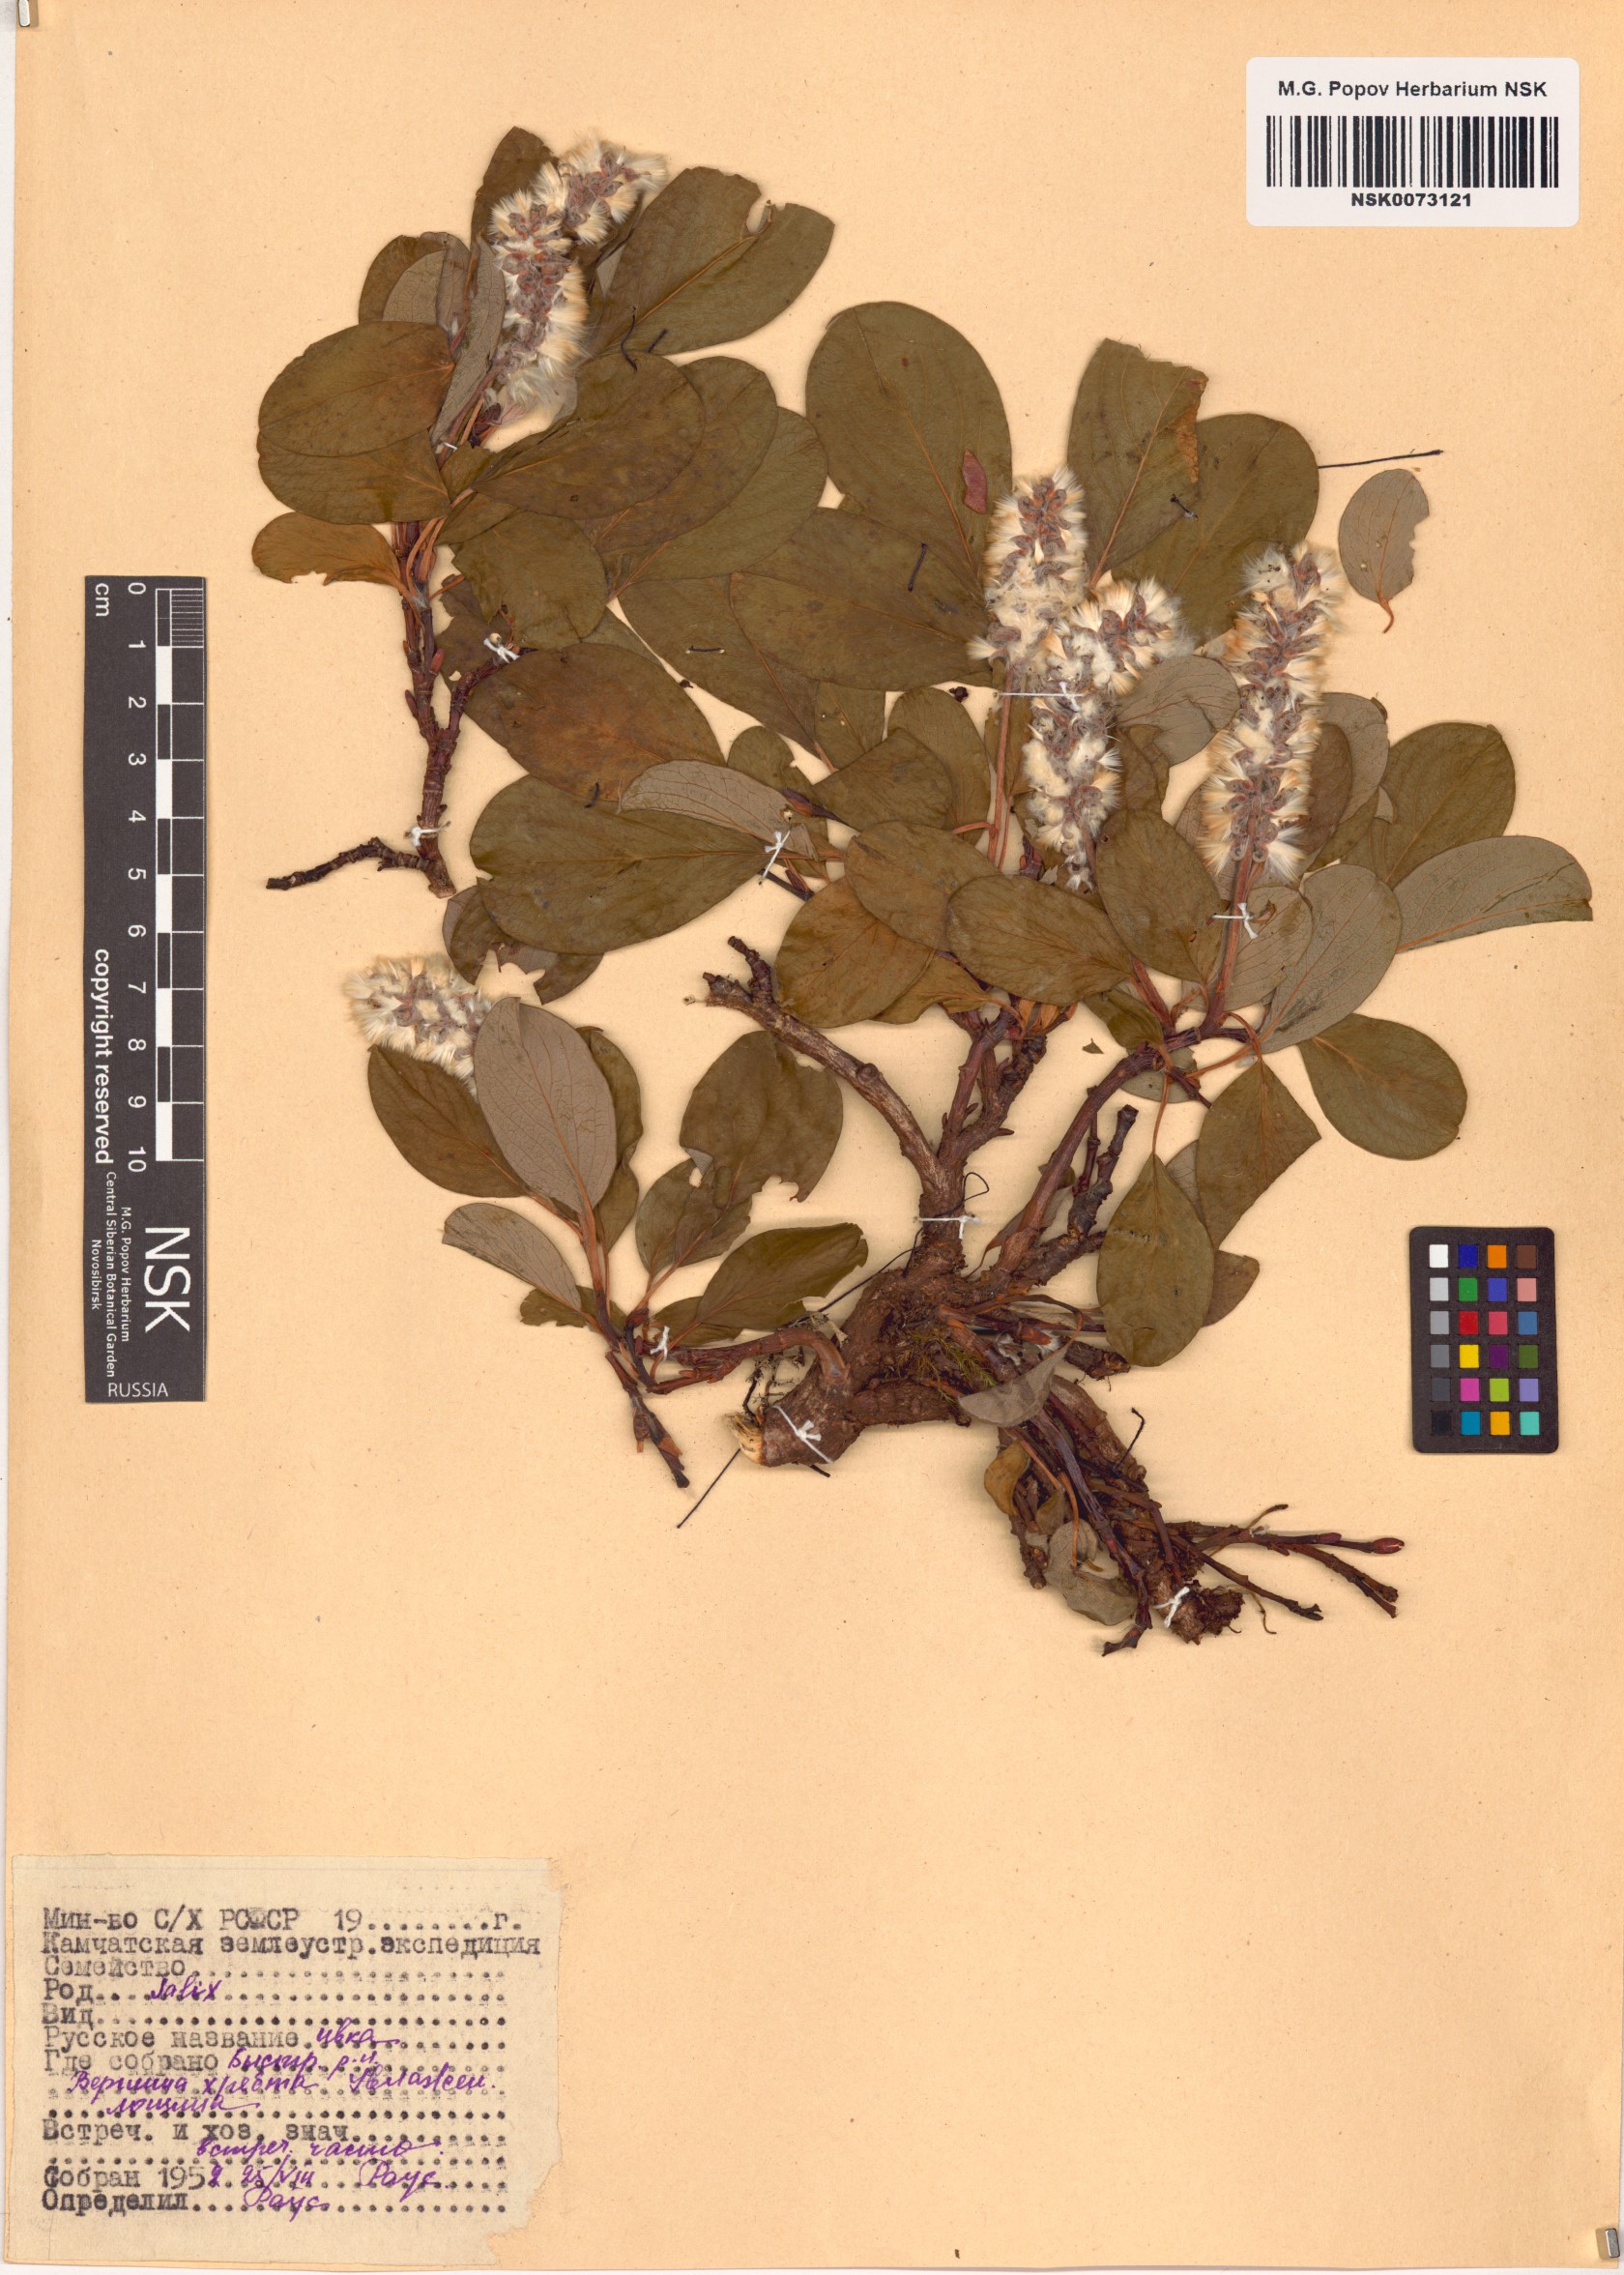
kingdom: Plantae
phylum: Tracheophyta
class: Magnoliopsida
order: Malpighiales
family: Salicaceae
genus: Salix
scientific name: Salix
